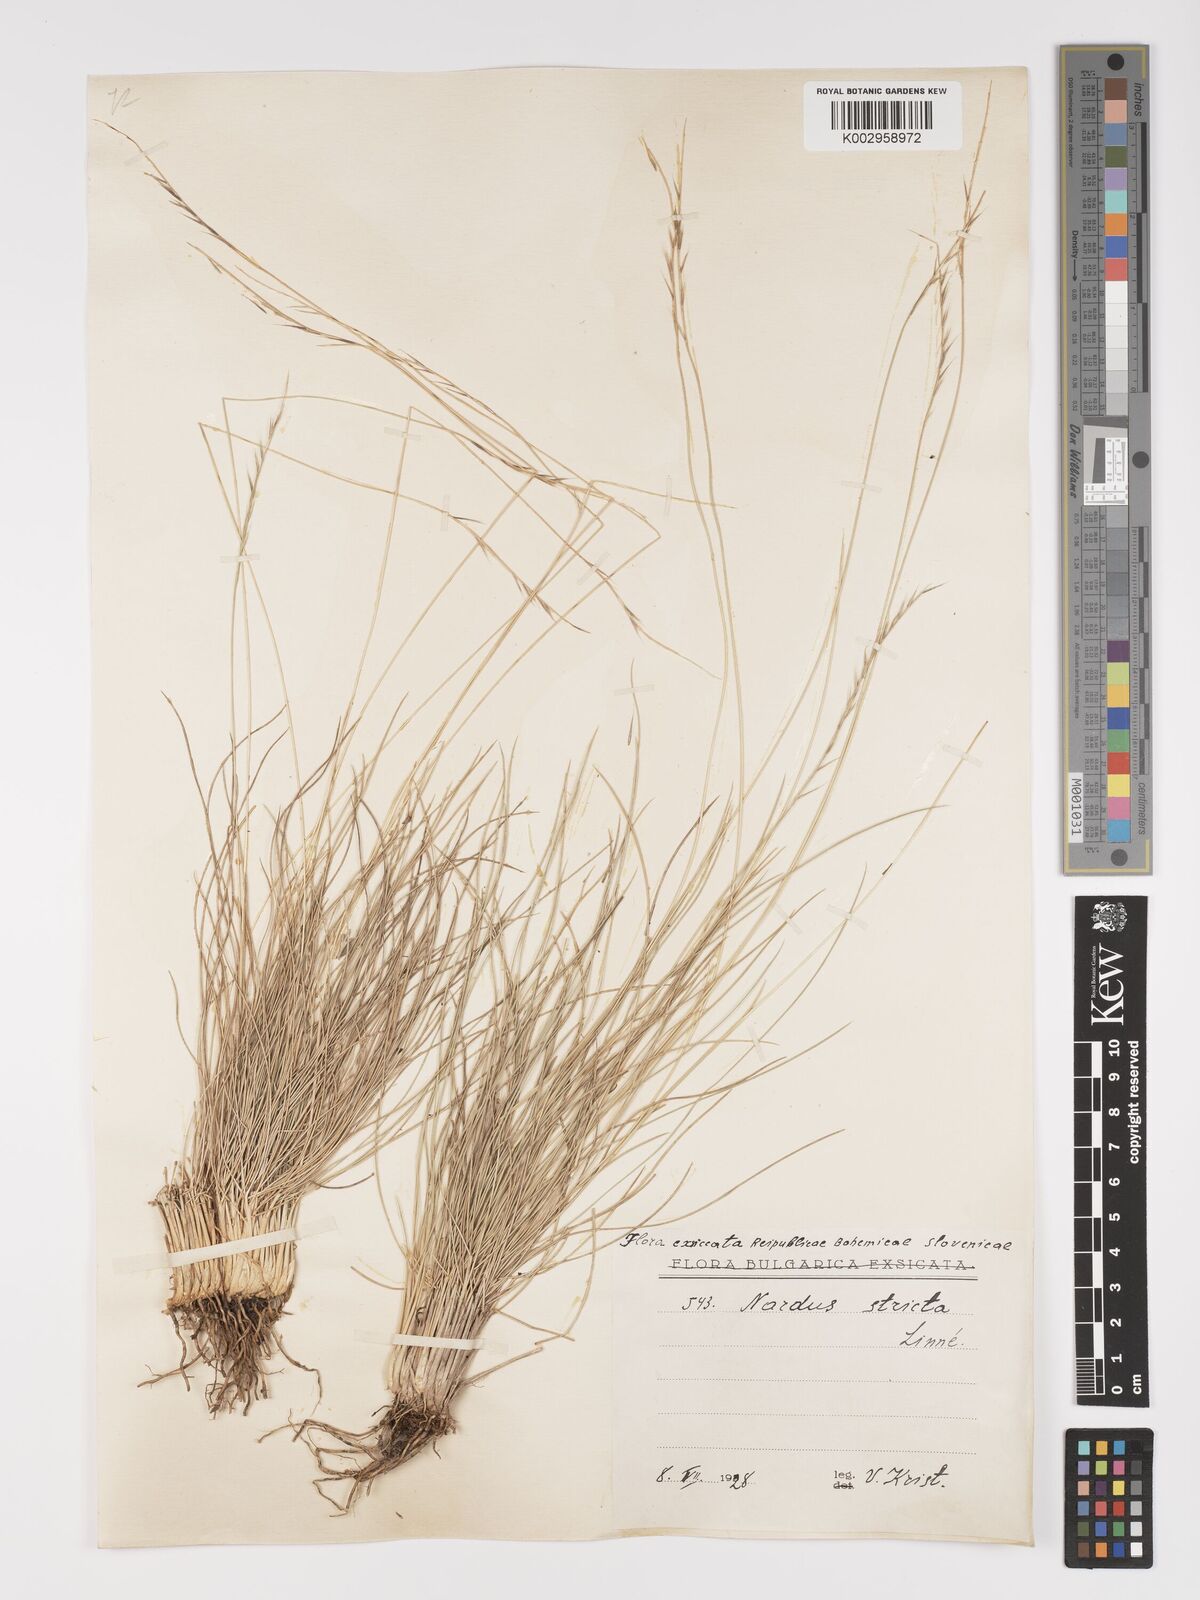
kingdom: Plantae
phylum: Tracheophyta
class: Liliopsida
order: Poales
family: Poaceae
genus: Nardus
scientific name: Nardus stricta
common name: Mat-grass
